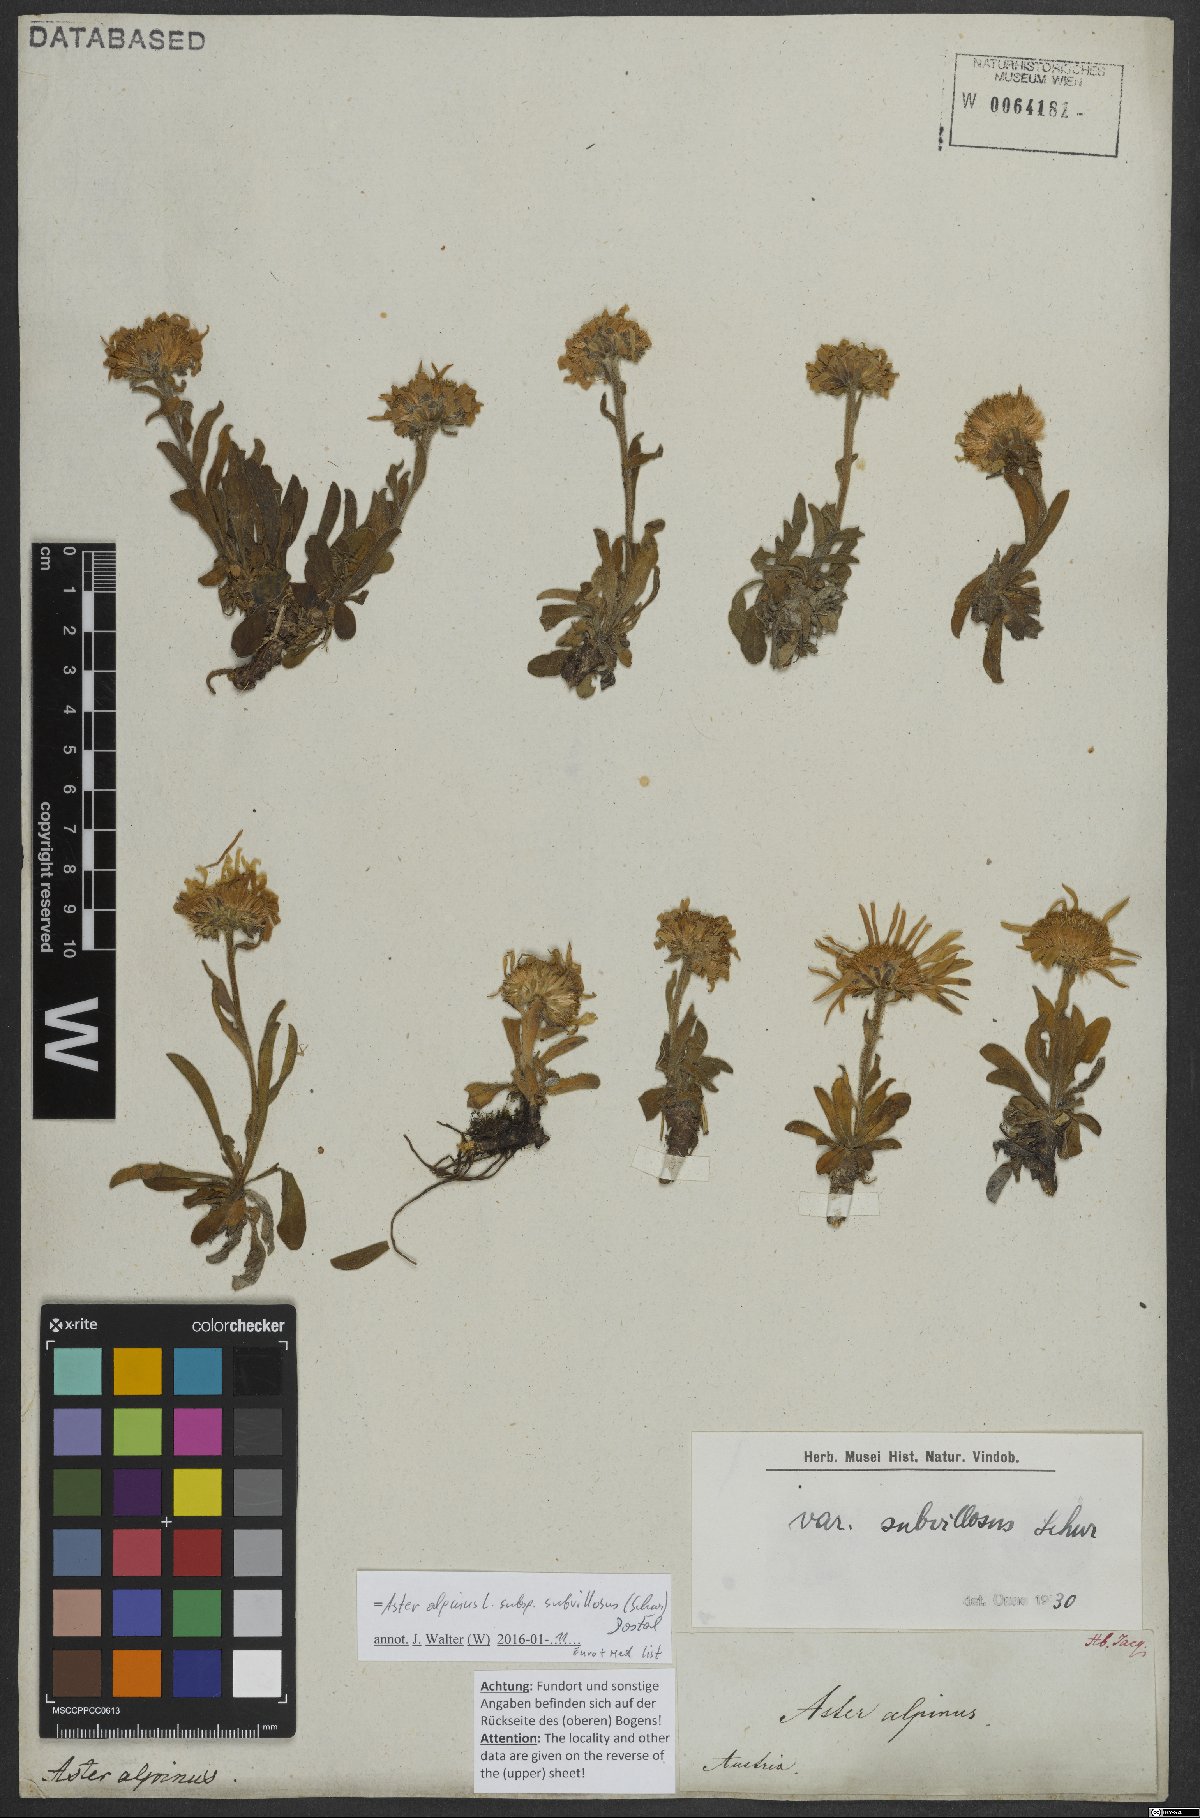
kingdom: Plantae
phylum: Tracheophyta
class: Magnoliopsida
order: Asterales
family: Asteraceae
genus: Aster
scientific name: Aster alpinus
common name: Alpine aster
